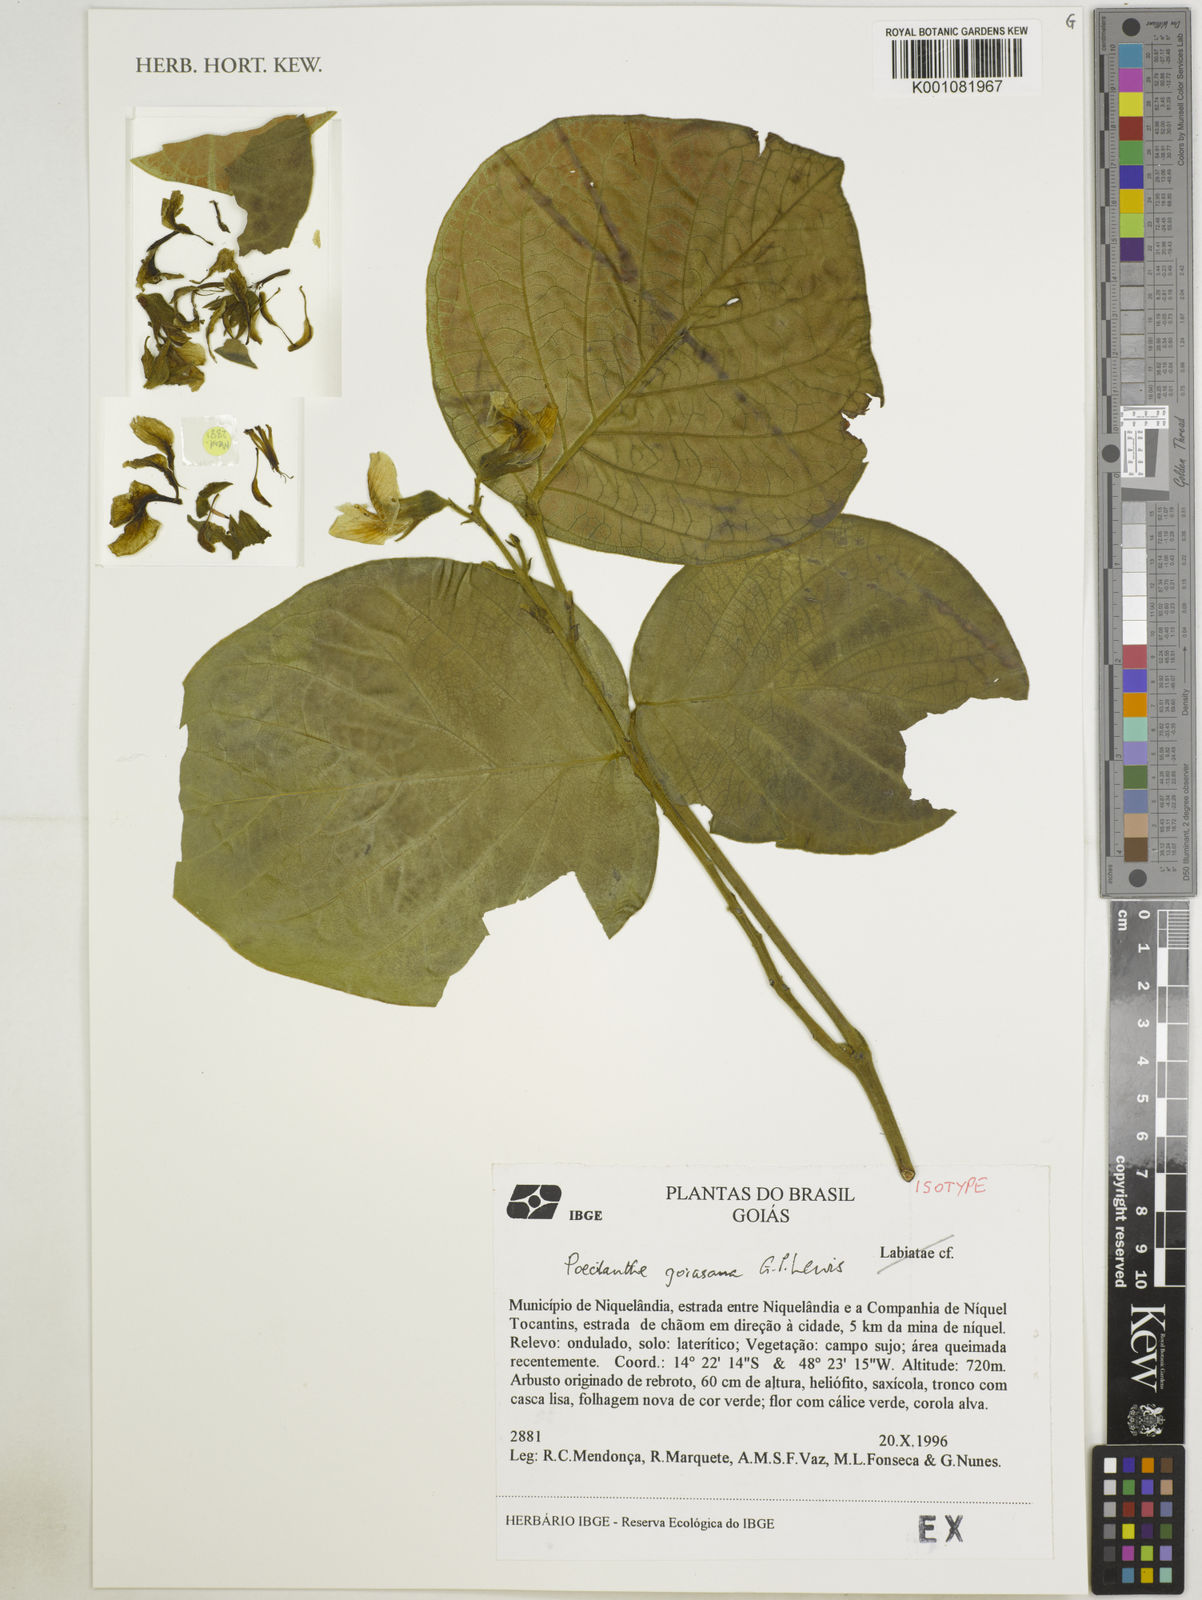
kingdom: Plantae
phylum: Tracheophyta
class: Magnoliopsida
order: Fabales
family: Fabaceae
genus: Poecilanthe
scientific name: Poecilanthe
